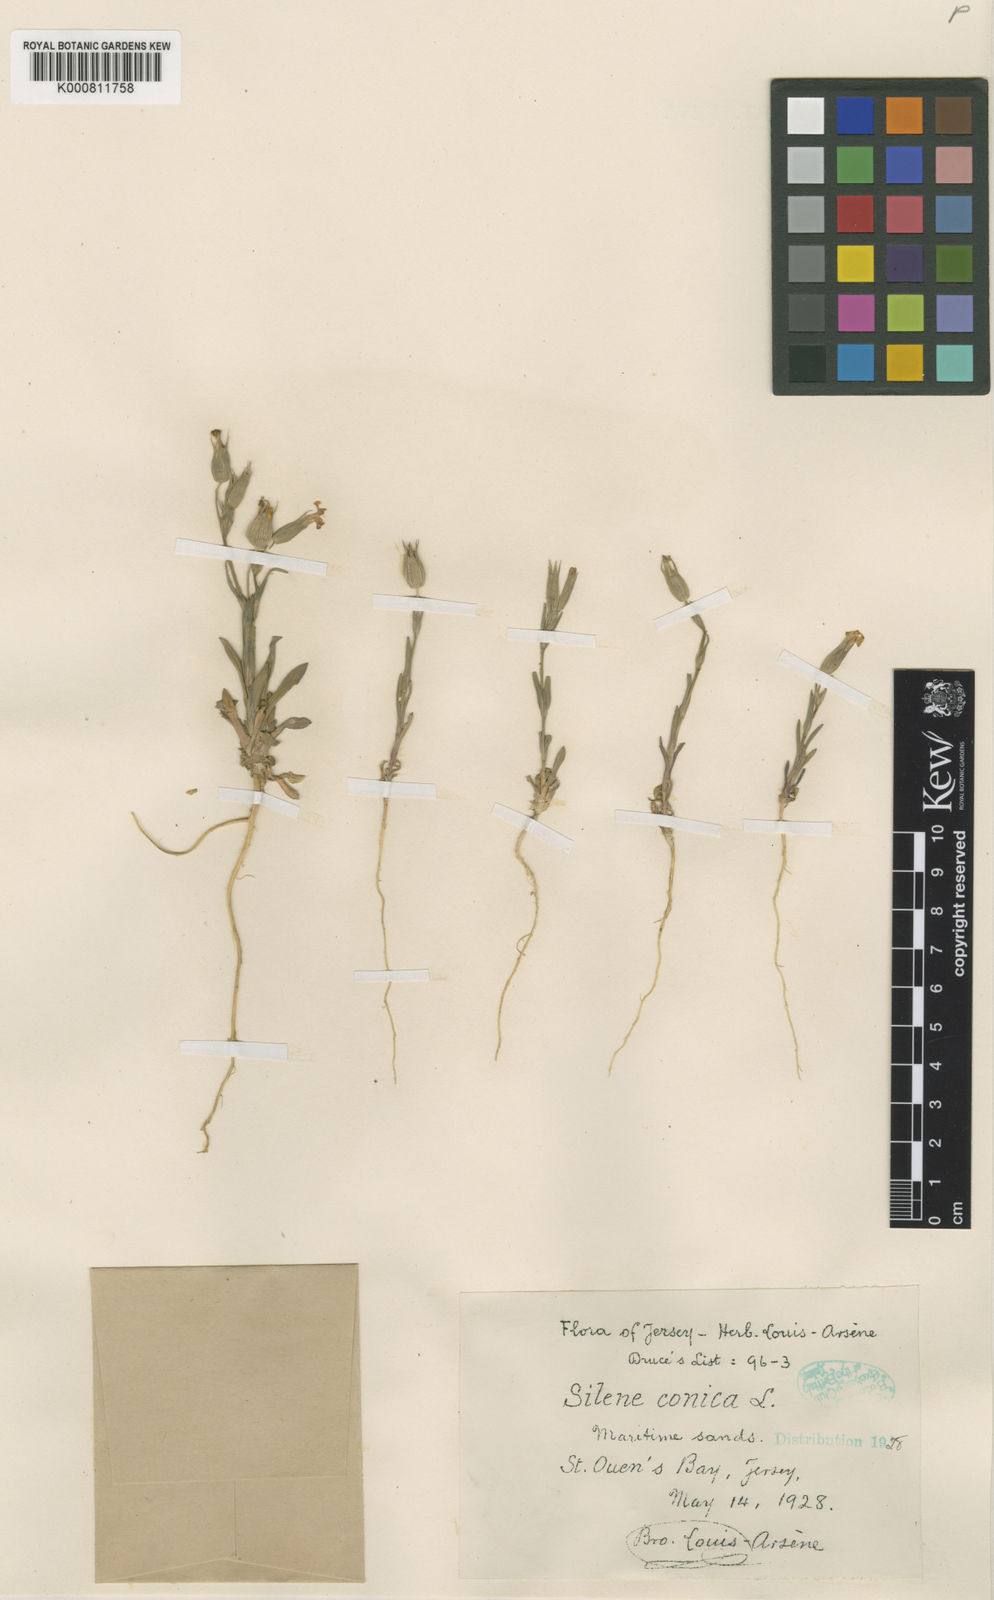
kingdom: Plantae
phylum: Tracheophyta
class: Magnoliopsida
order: Caryophyllales
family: Caryophyllaceae
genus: Silene
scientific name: Silene conica
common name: Sand catchfly
